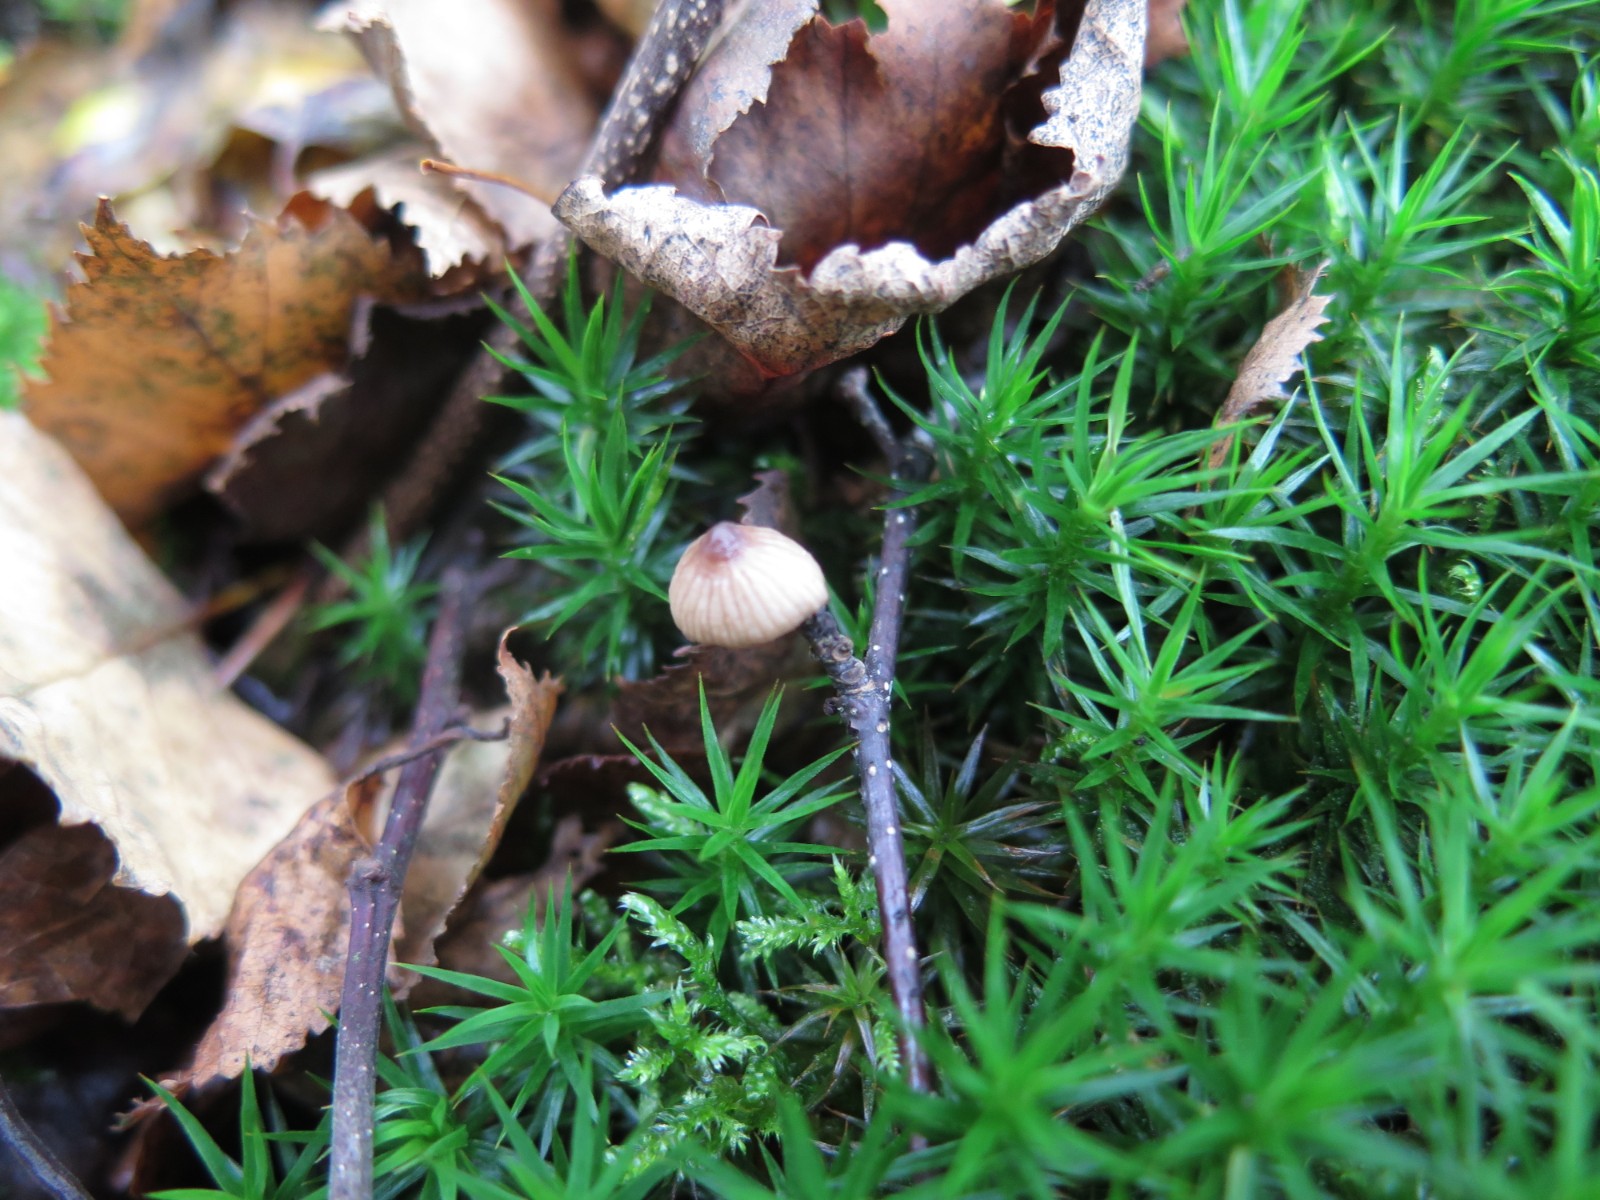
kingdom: Fungi
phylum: Basidiomycota
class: Agaricomycetes
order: Agaricales
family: Mycenaceae
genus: Mycena
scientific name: Mycena sanguinolenta
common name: rødmælket huesvamp
